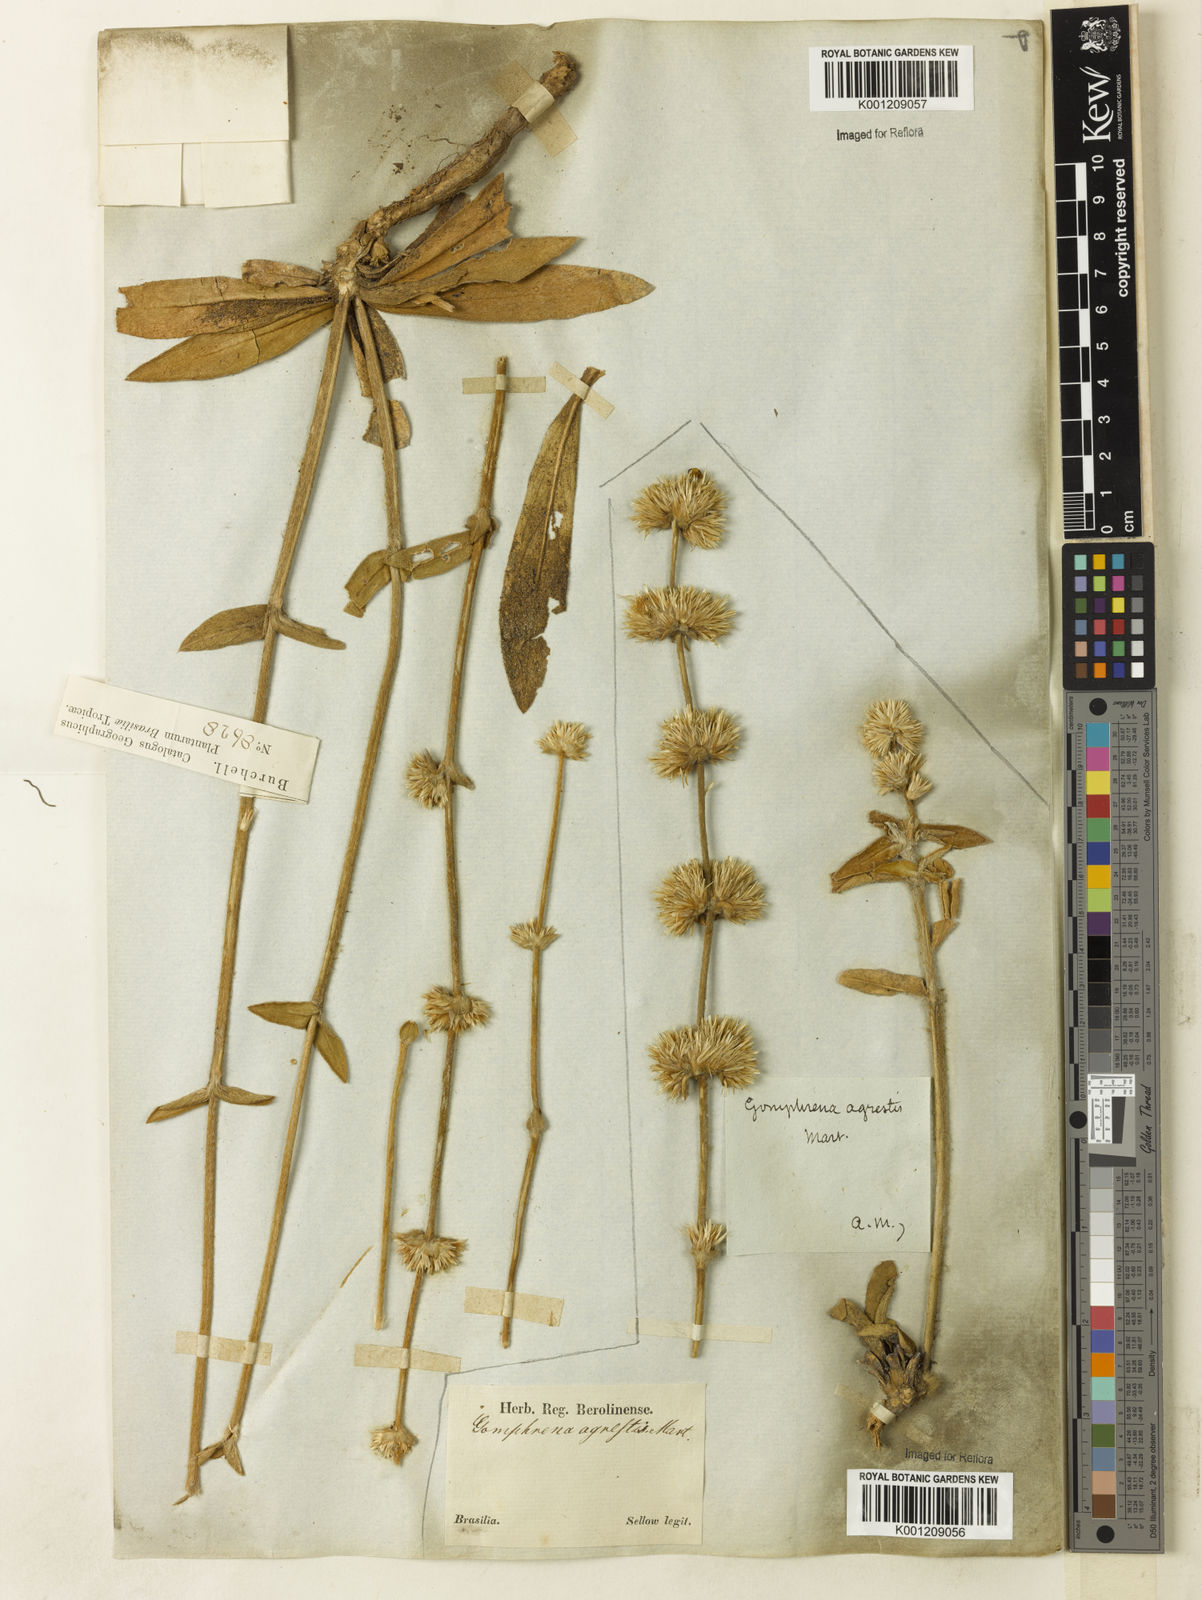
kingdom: Plantae
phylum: Tracheophyta
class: Magnoliopsida
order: Caryophyllales
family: Amaranthaceae
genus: Gomphrena
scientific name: Gomphrena agrestis
